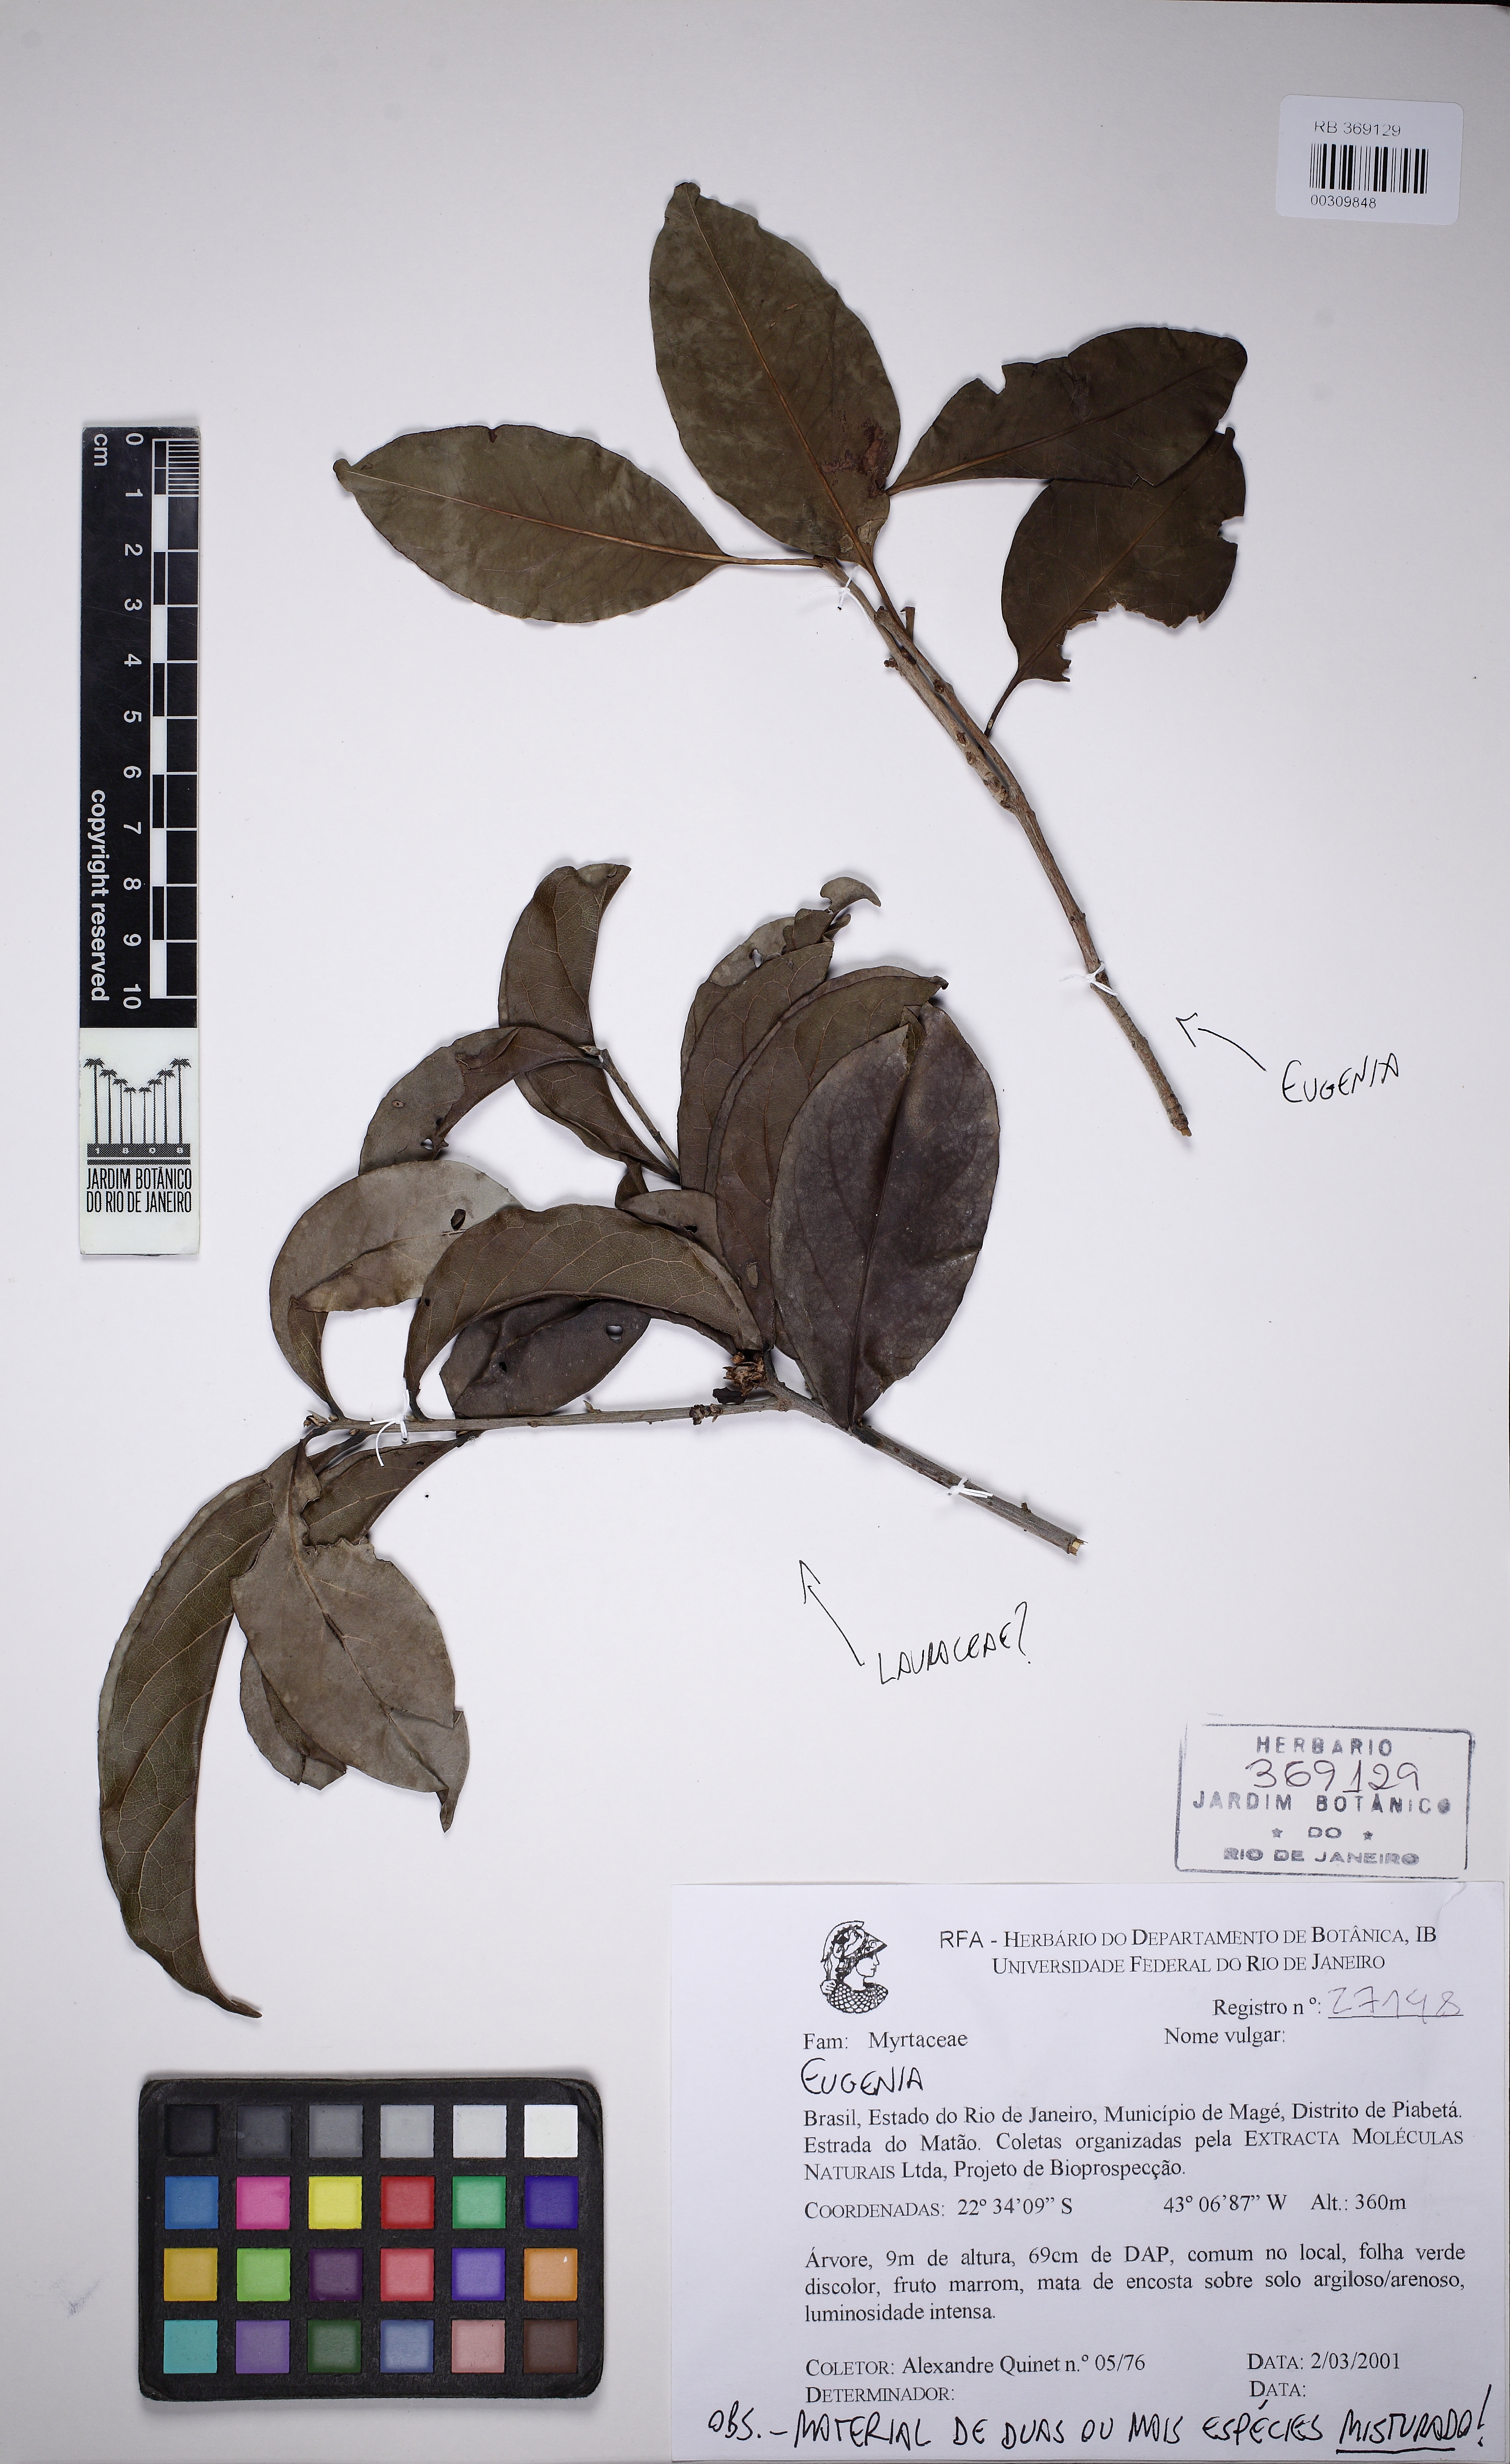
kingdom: Plantae
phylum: Tracheophyta
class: Magnoliopsida
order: Myrtales
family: Myrtaceae
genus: Eugenia
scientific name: Eugenia
